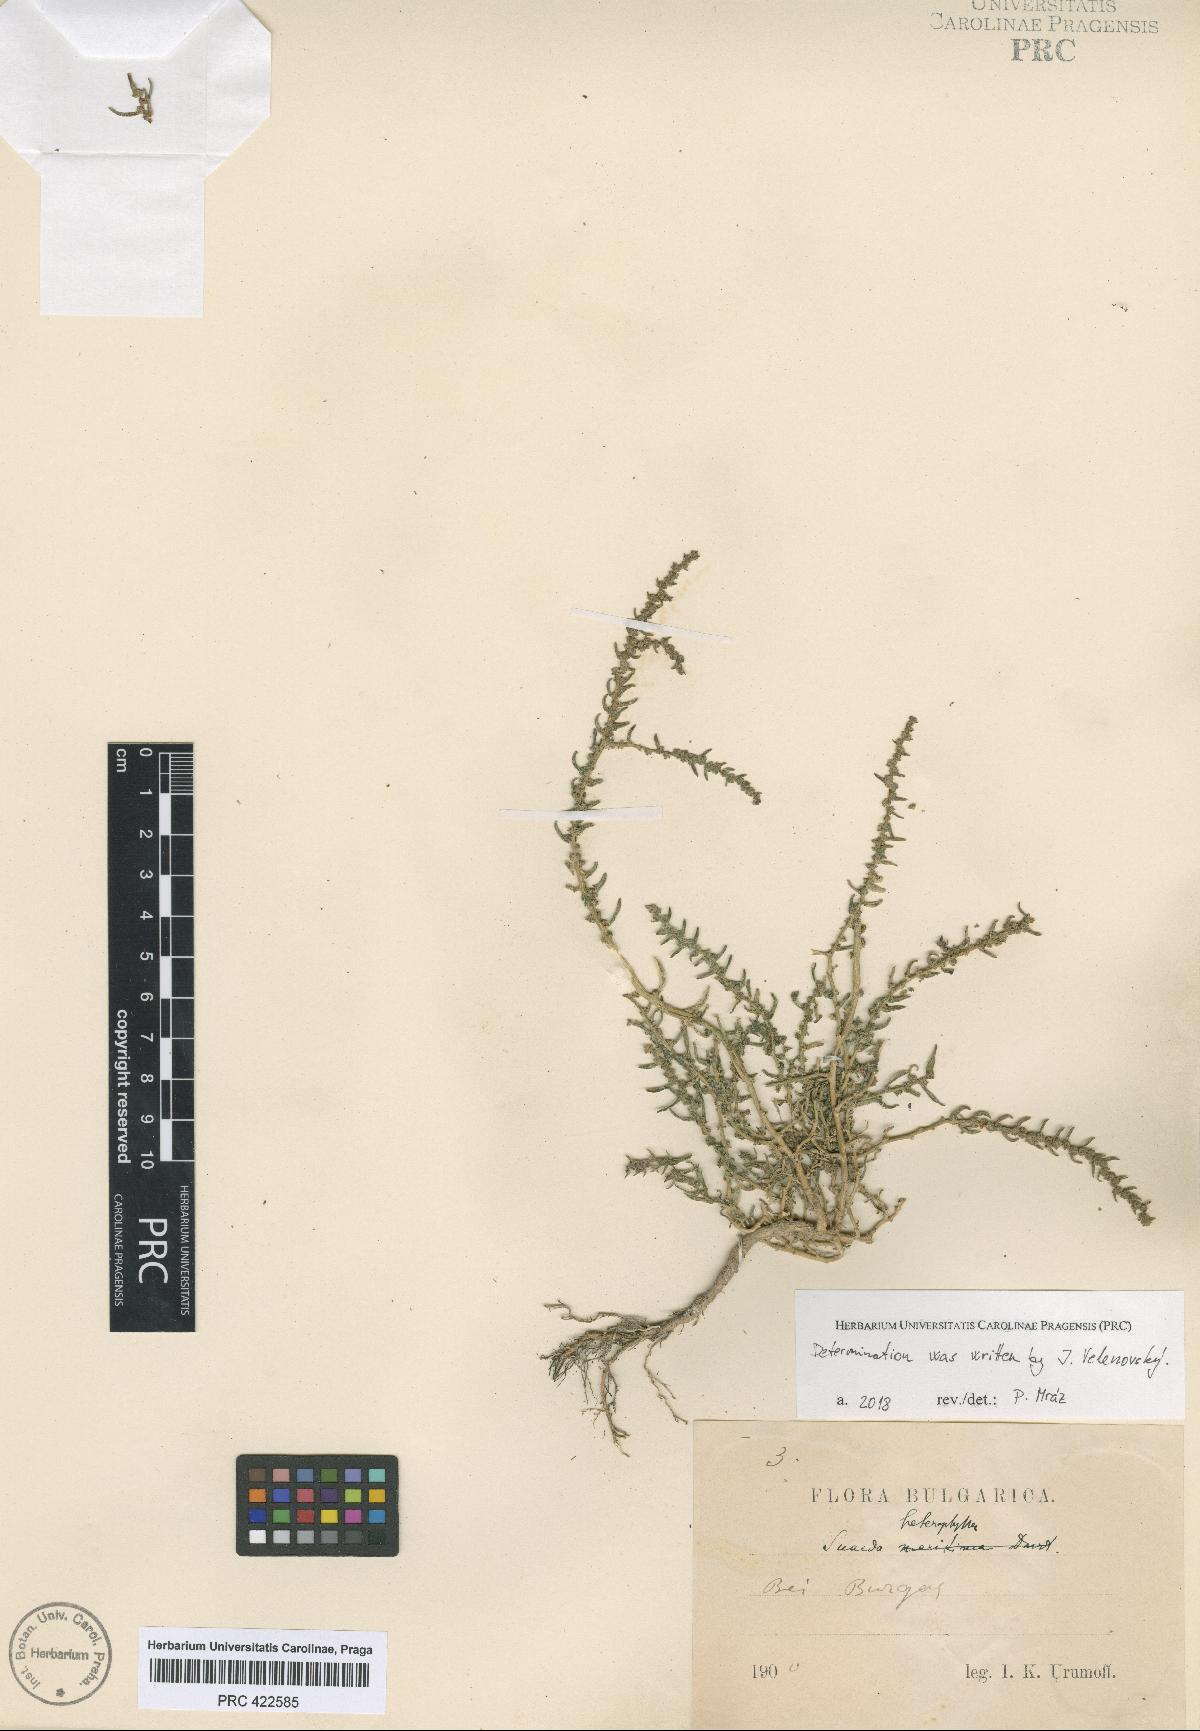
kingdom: Plantae
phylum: Tracheophyta
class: Magnoliopsida
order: Caryophyllales
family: Amaranthaceae
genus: Suaeda
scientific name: Suaeda heterophylla
